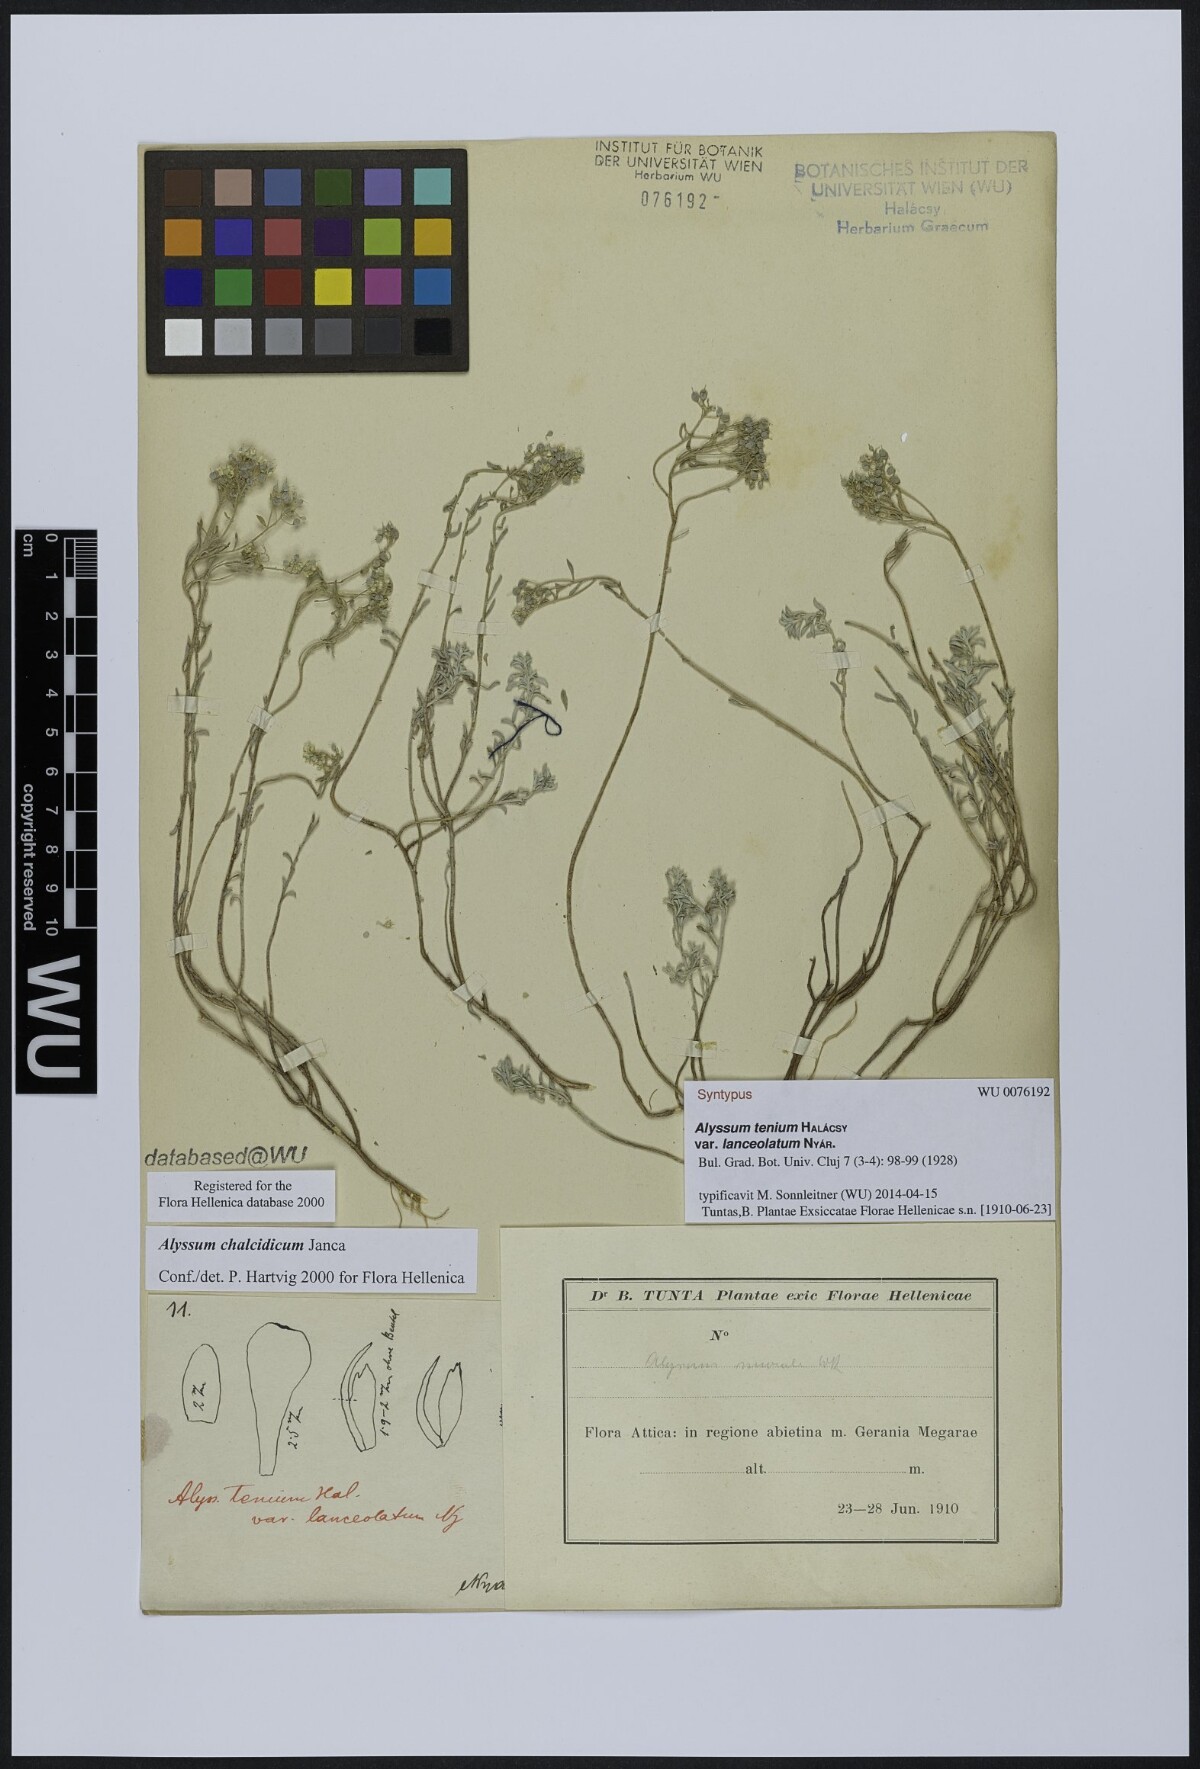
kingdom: Plantae
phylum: Tracheophyta
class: Magnoliopsida
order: Brassicales
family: Brassicaceae
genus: Alyssum
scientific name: Alyssum tenium
